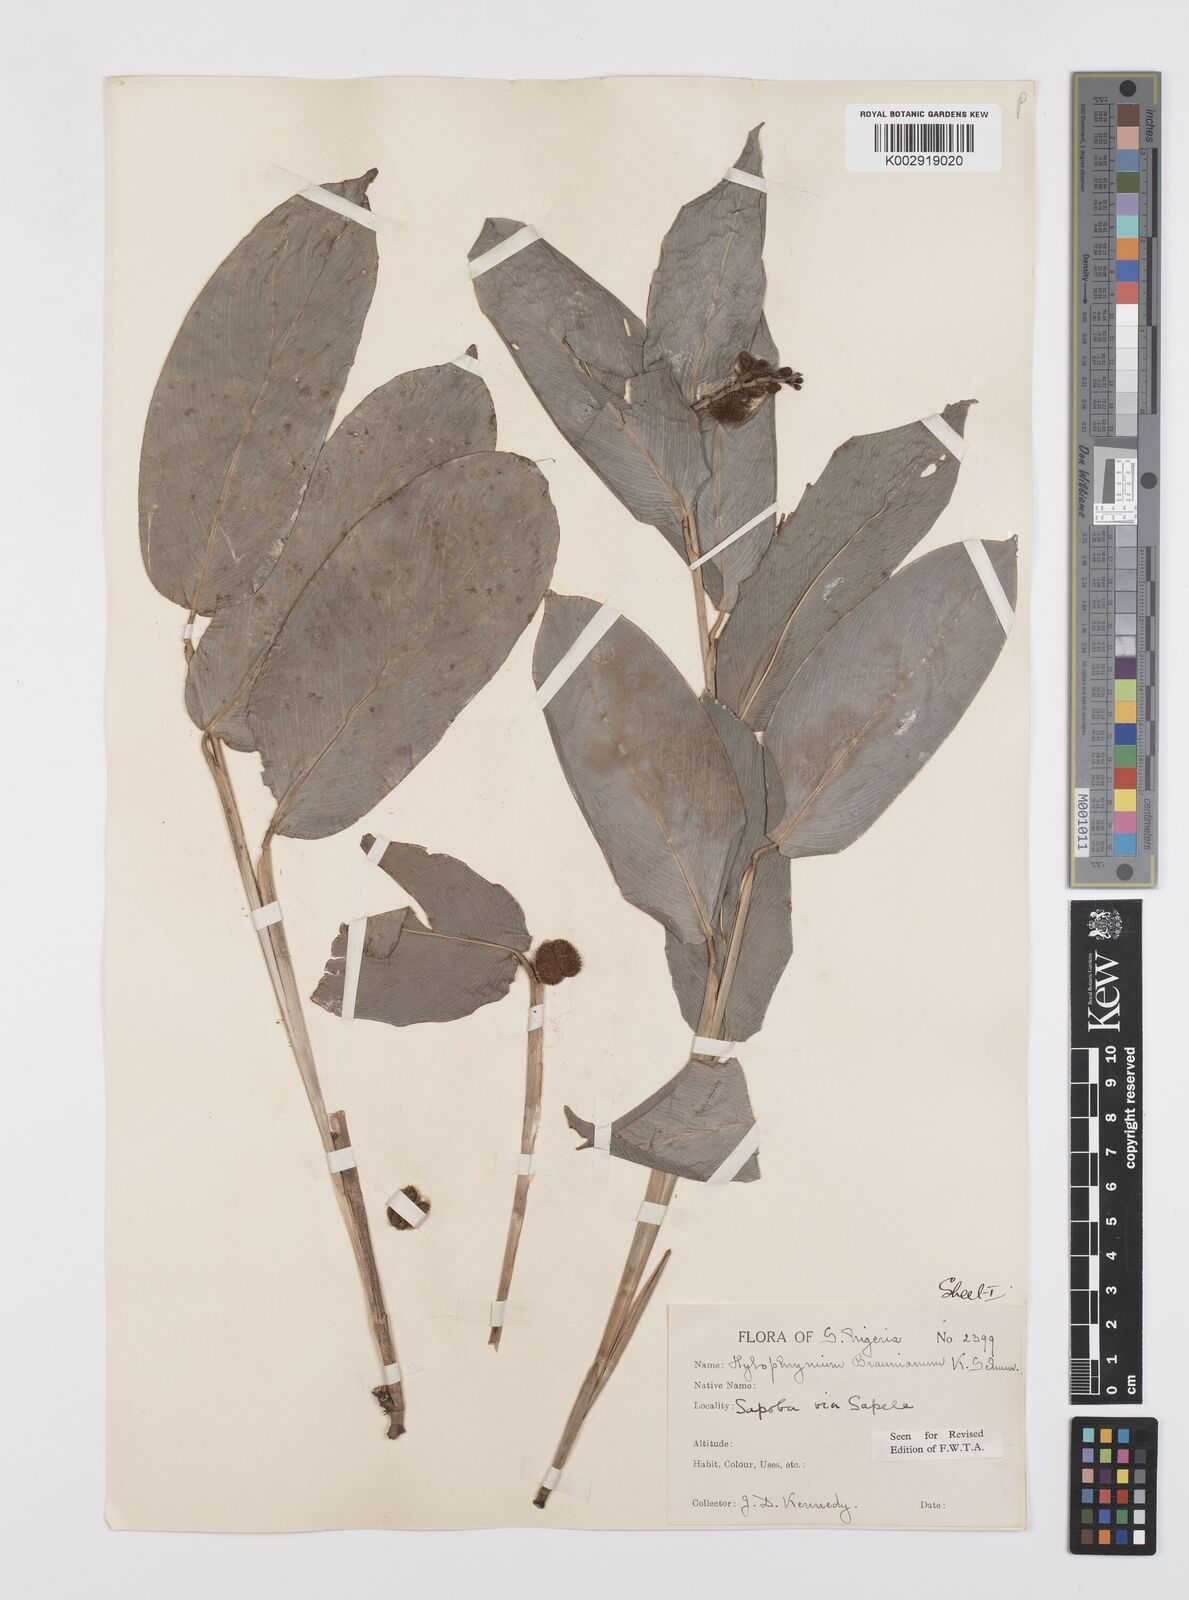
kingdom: Plantae
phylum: Tracheophyta
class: Liliopsida
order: Zingiberales
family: Marantaceae
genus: Trachyphrynium
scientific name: Trachyphrynium braunianum
